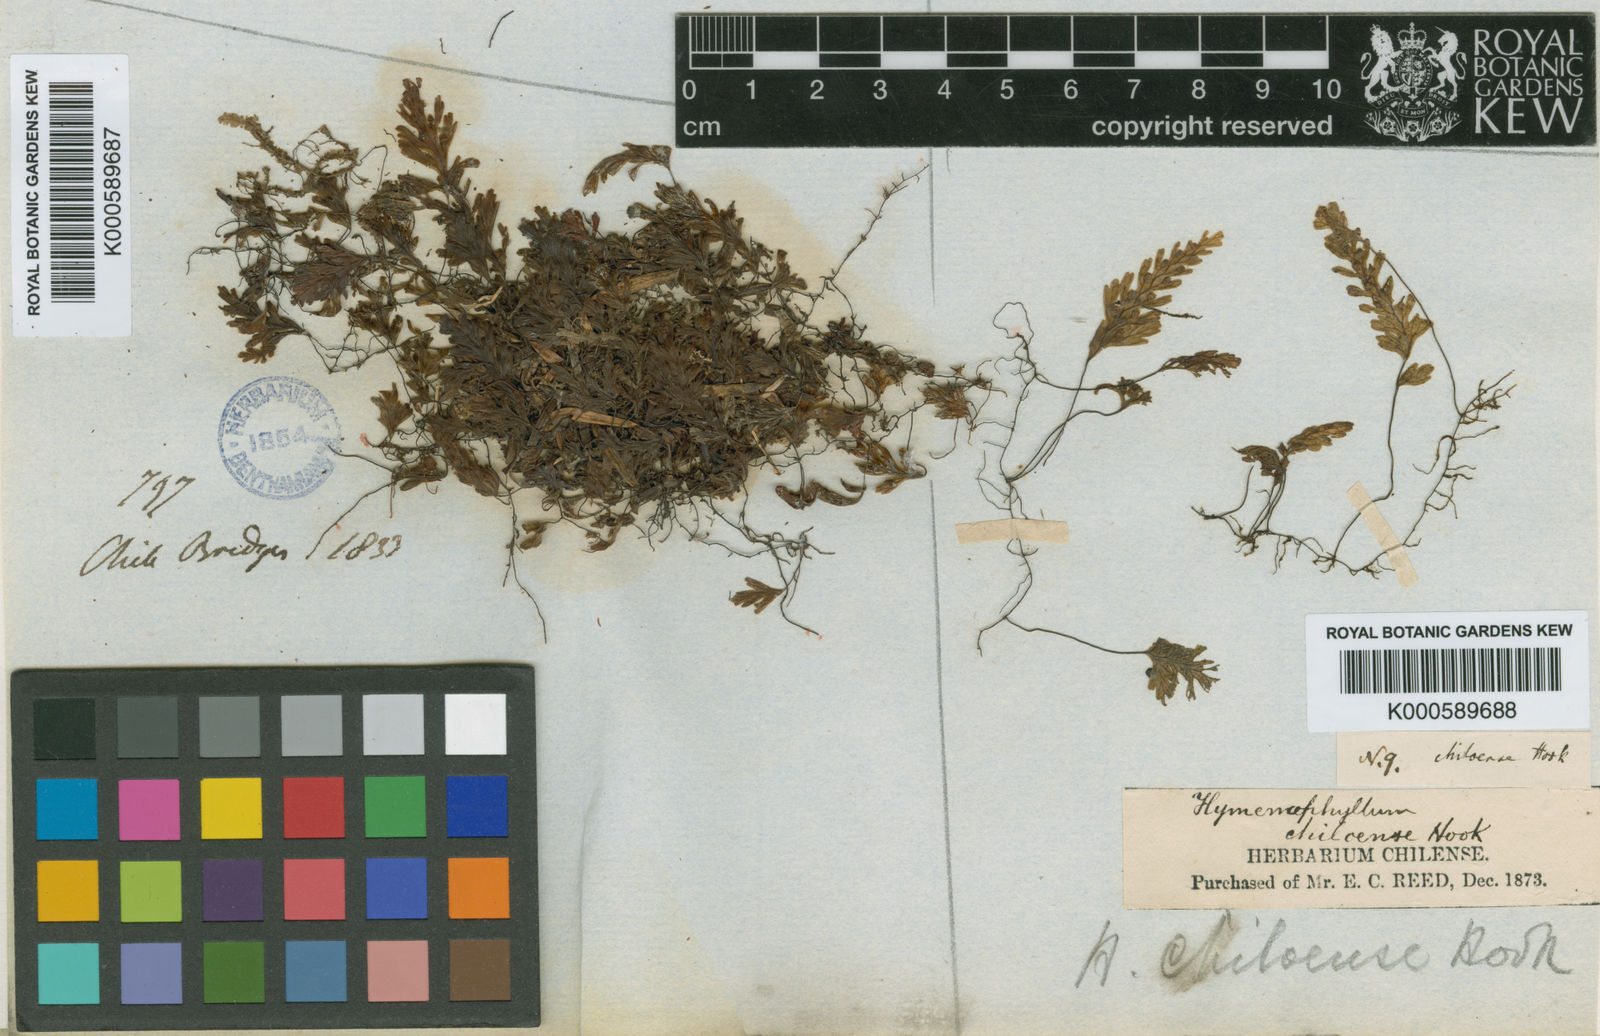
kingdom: Plantae
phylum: Tracheophyta
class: Polypodiopsida
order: Hymenophyllales
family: Hymenophyllaceae
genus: Hymenophyllum
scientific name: Hymenophyllum dicranotrichum
